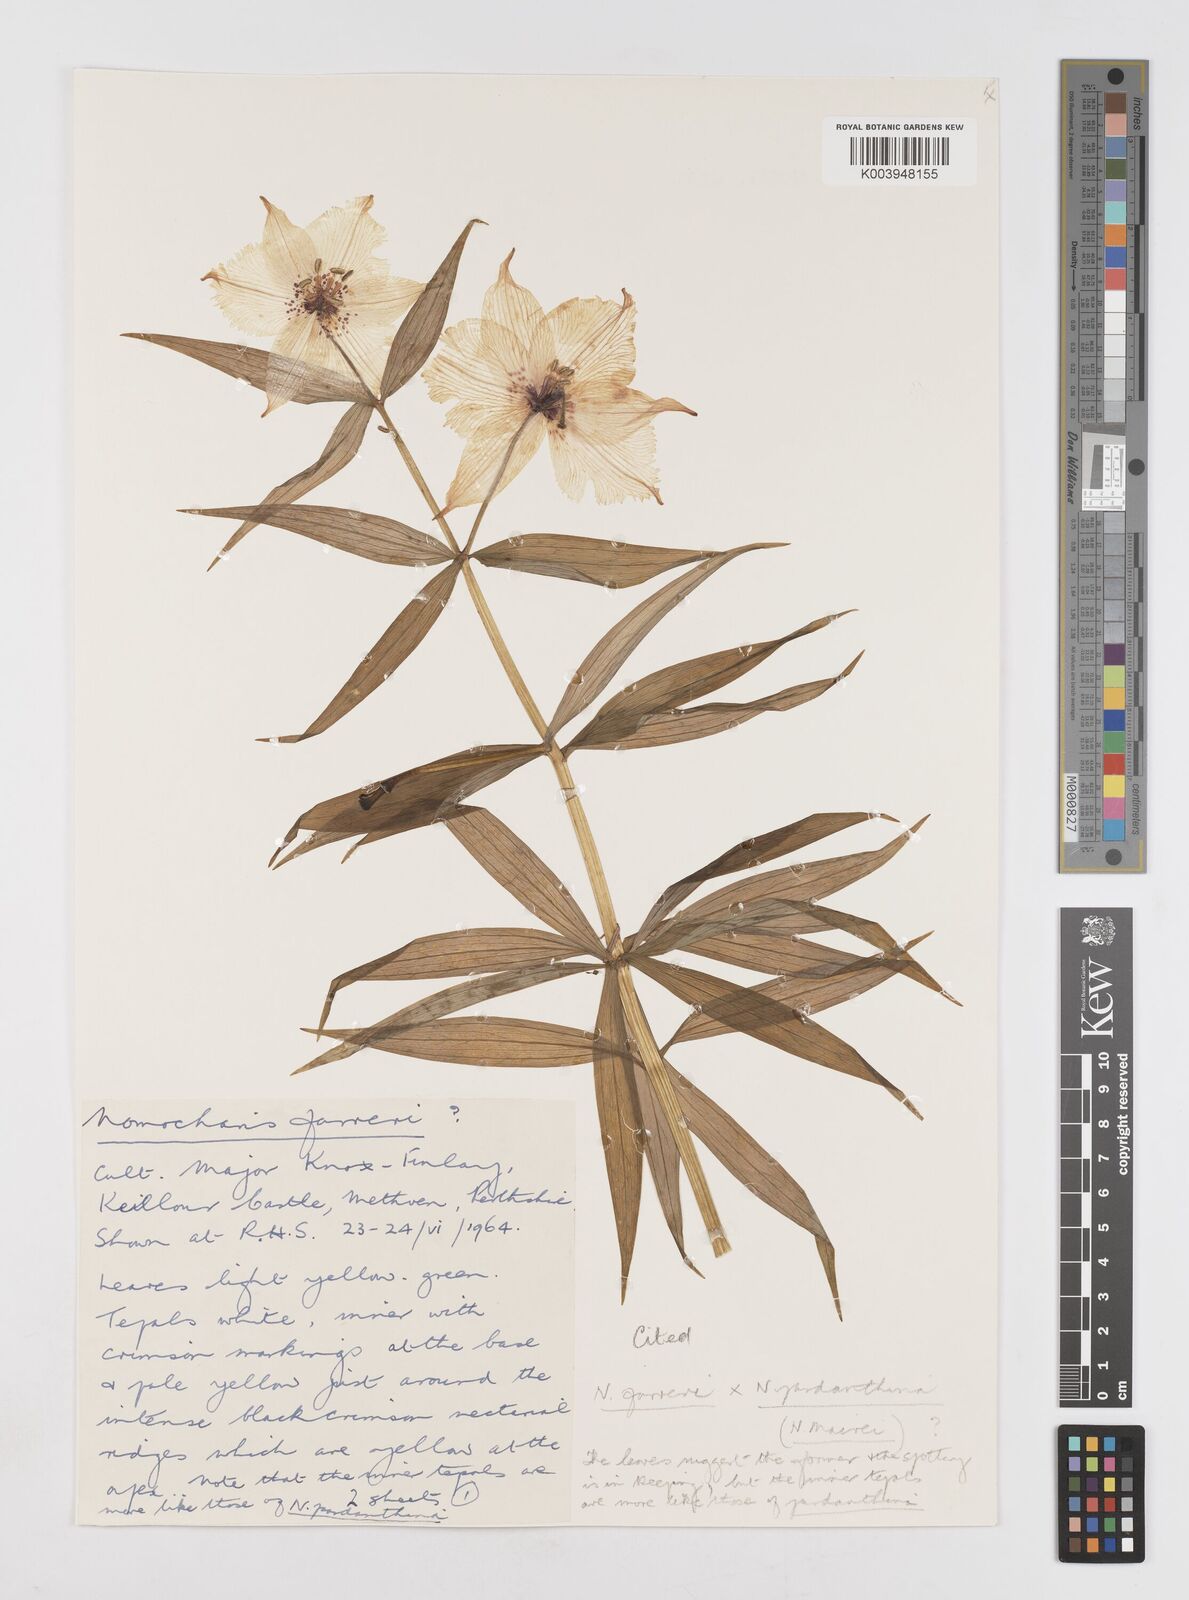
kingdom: Plantae
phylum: Tracheophyta
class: Liliopsida
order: Liliales
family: Liliaceae
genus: Lilium
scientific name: Lilium Nomocharis finlayorum
